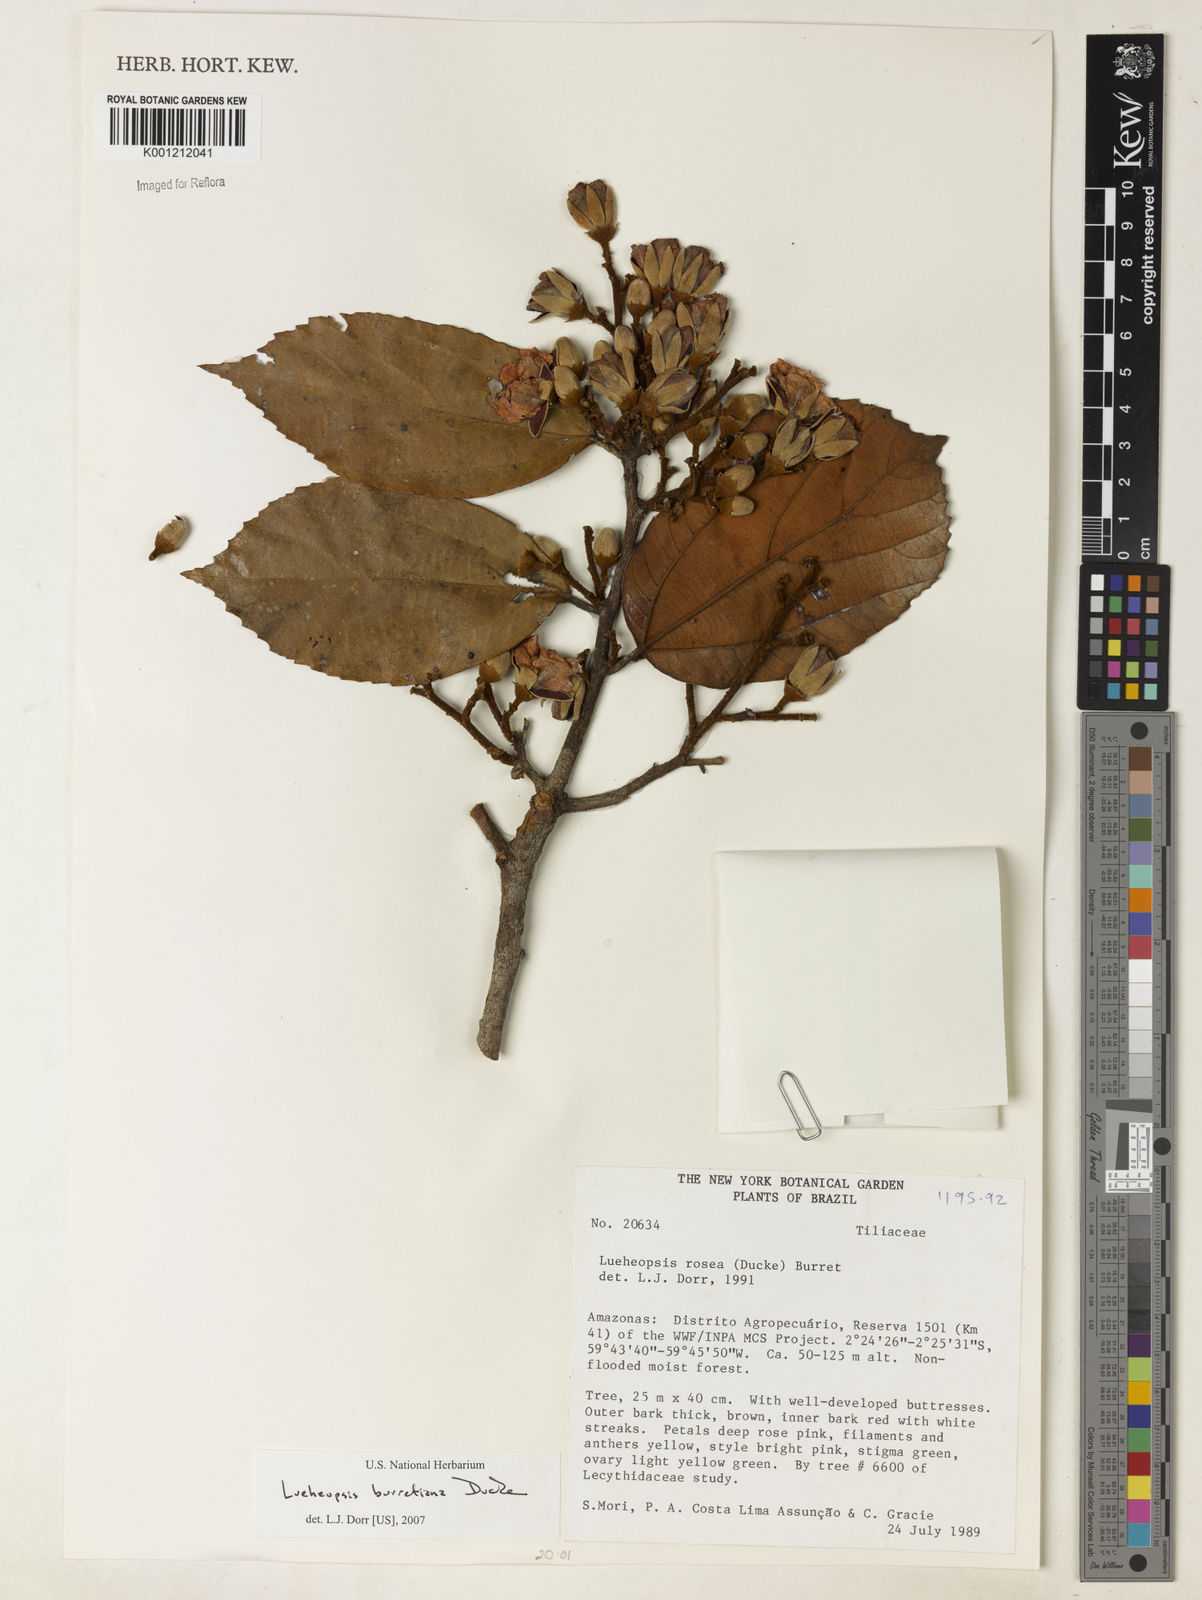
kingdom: Plantae
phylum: Tracheophyta
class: Magnoliopsida
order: Malvales
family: Malvaceae
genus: Lueheopsis
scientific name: Lueheopsis burretiana
